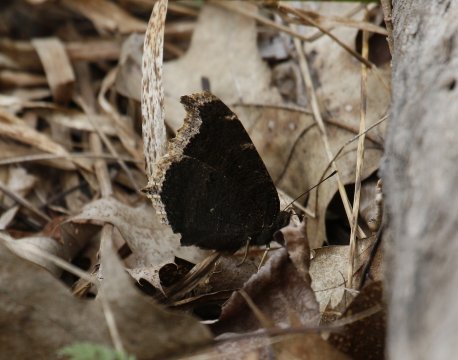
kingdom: Animalia
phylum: Arthropoda
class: Insecta
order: Lepidoptera
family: Nymphalidae
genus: Nymphalis
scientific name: Nymphalis antiopa
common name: Mourning Cloak
